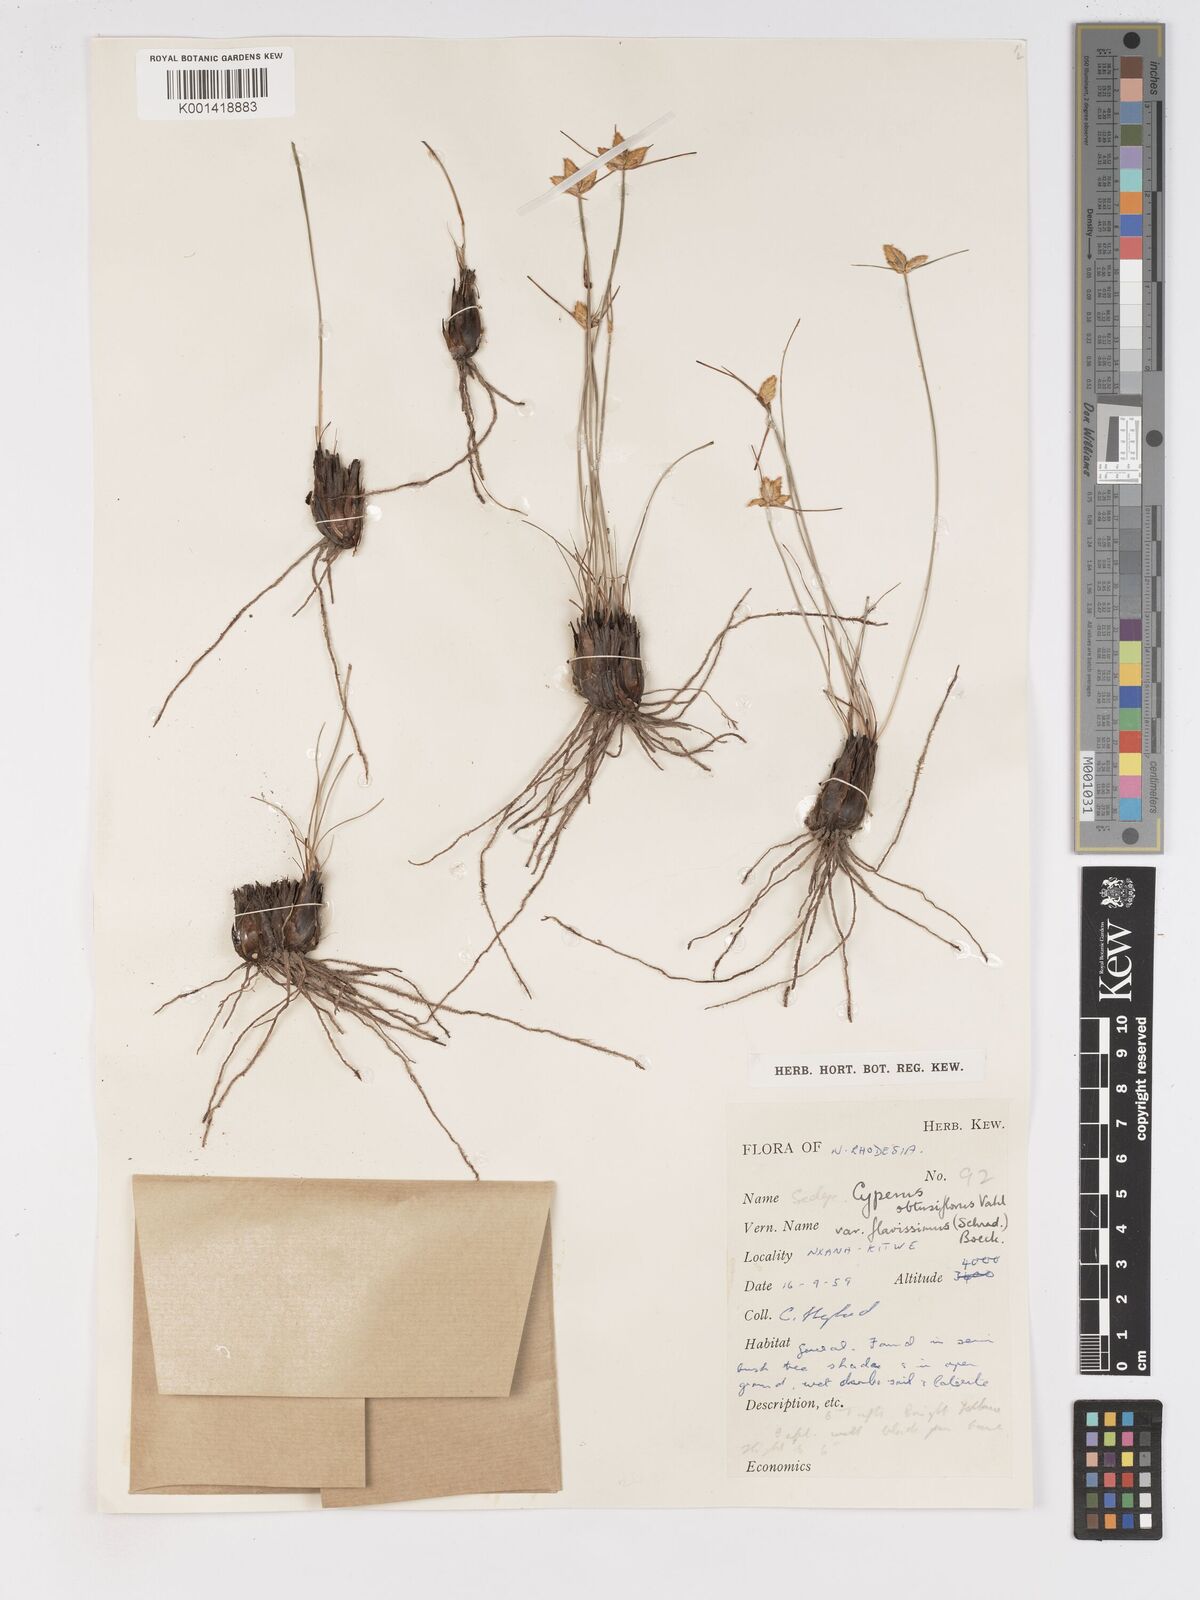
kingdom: Plantae
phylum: Tracheophyta
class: Liliopsida
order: Poales
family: Cyperaceae
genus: Cyperus
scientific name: Cyperus sphaerocephalus
